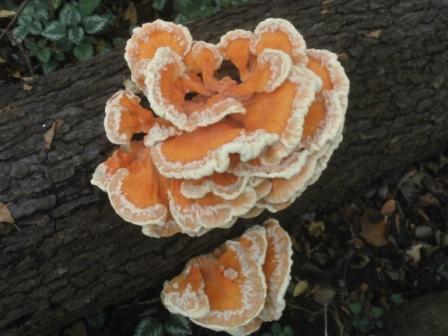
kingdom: Fungi
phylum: Basidiomycota
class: Agaricomycetes
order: Polyporales
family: Laetiporaceae
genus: Laetiporus
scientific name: Laetiporus sulphureus
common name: svovlporesvamp
